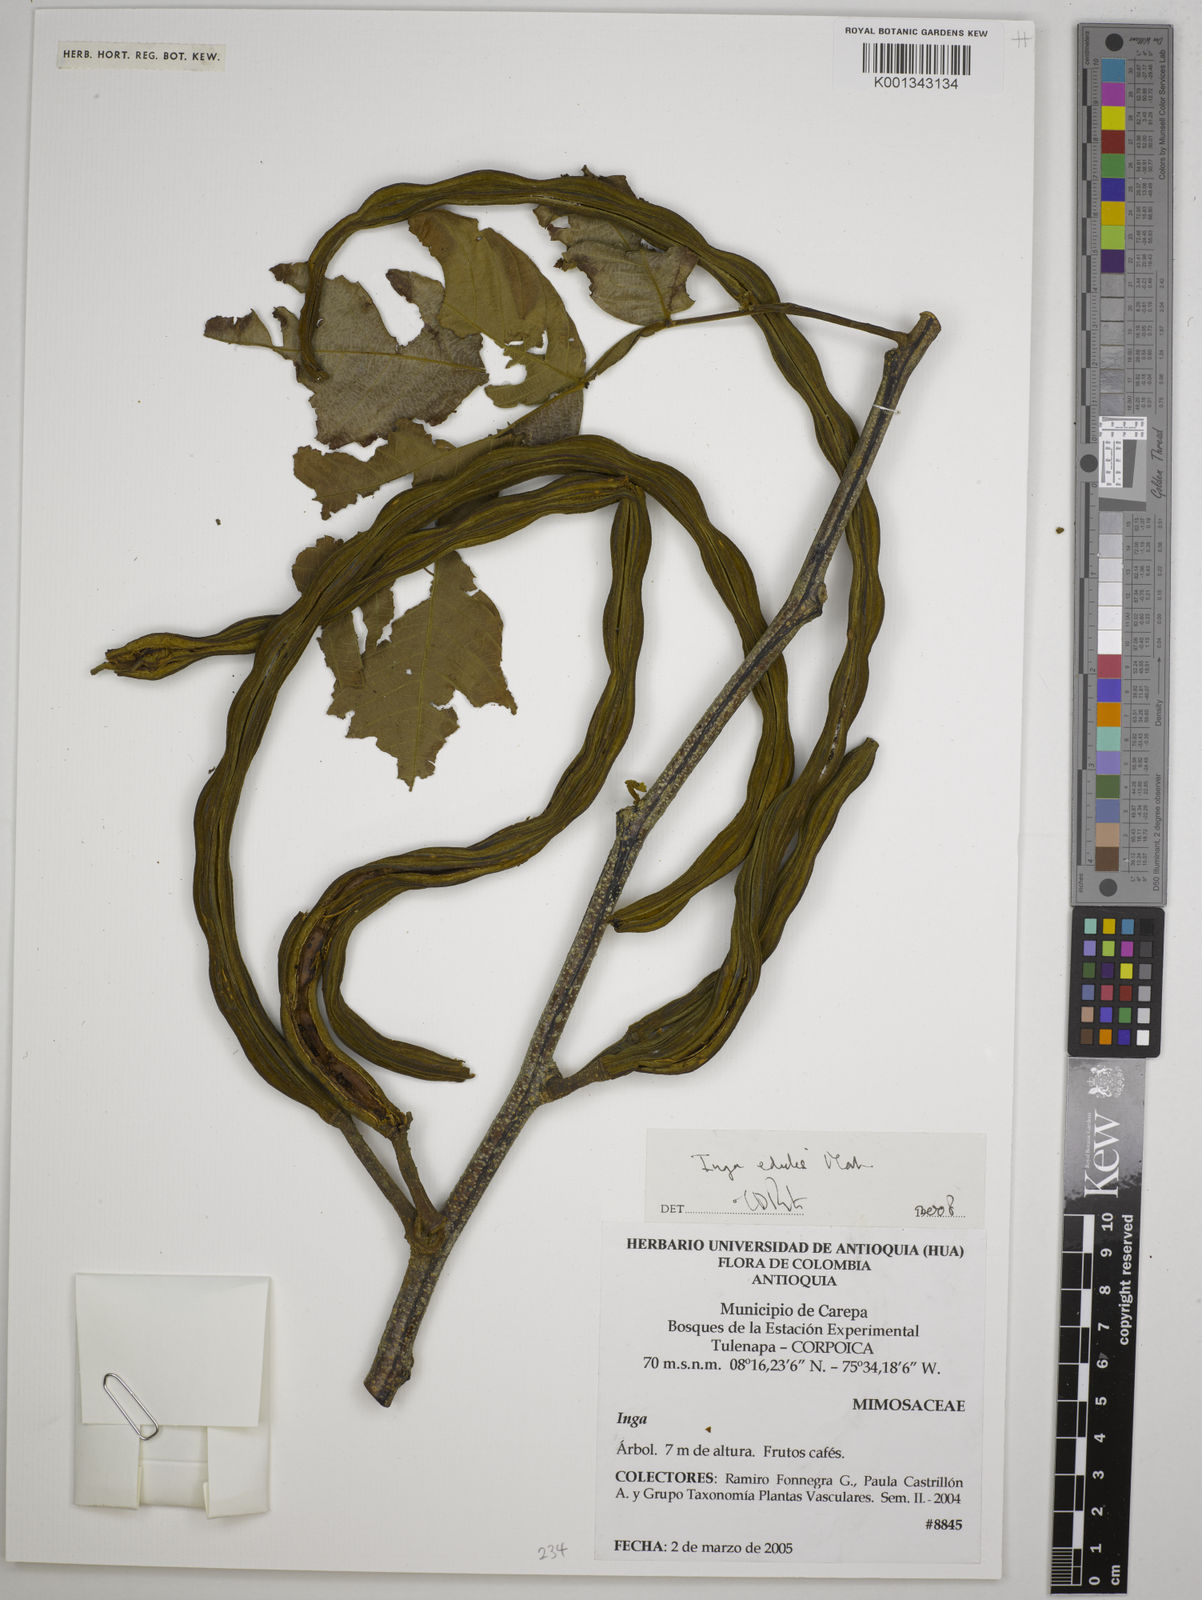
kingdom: Plantae
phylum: Tracheophyta
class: Magnoliopsida
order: Fabales
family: Fabaceae
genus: Inga
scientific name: Inga edulis
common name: Ice cream bean
